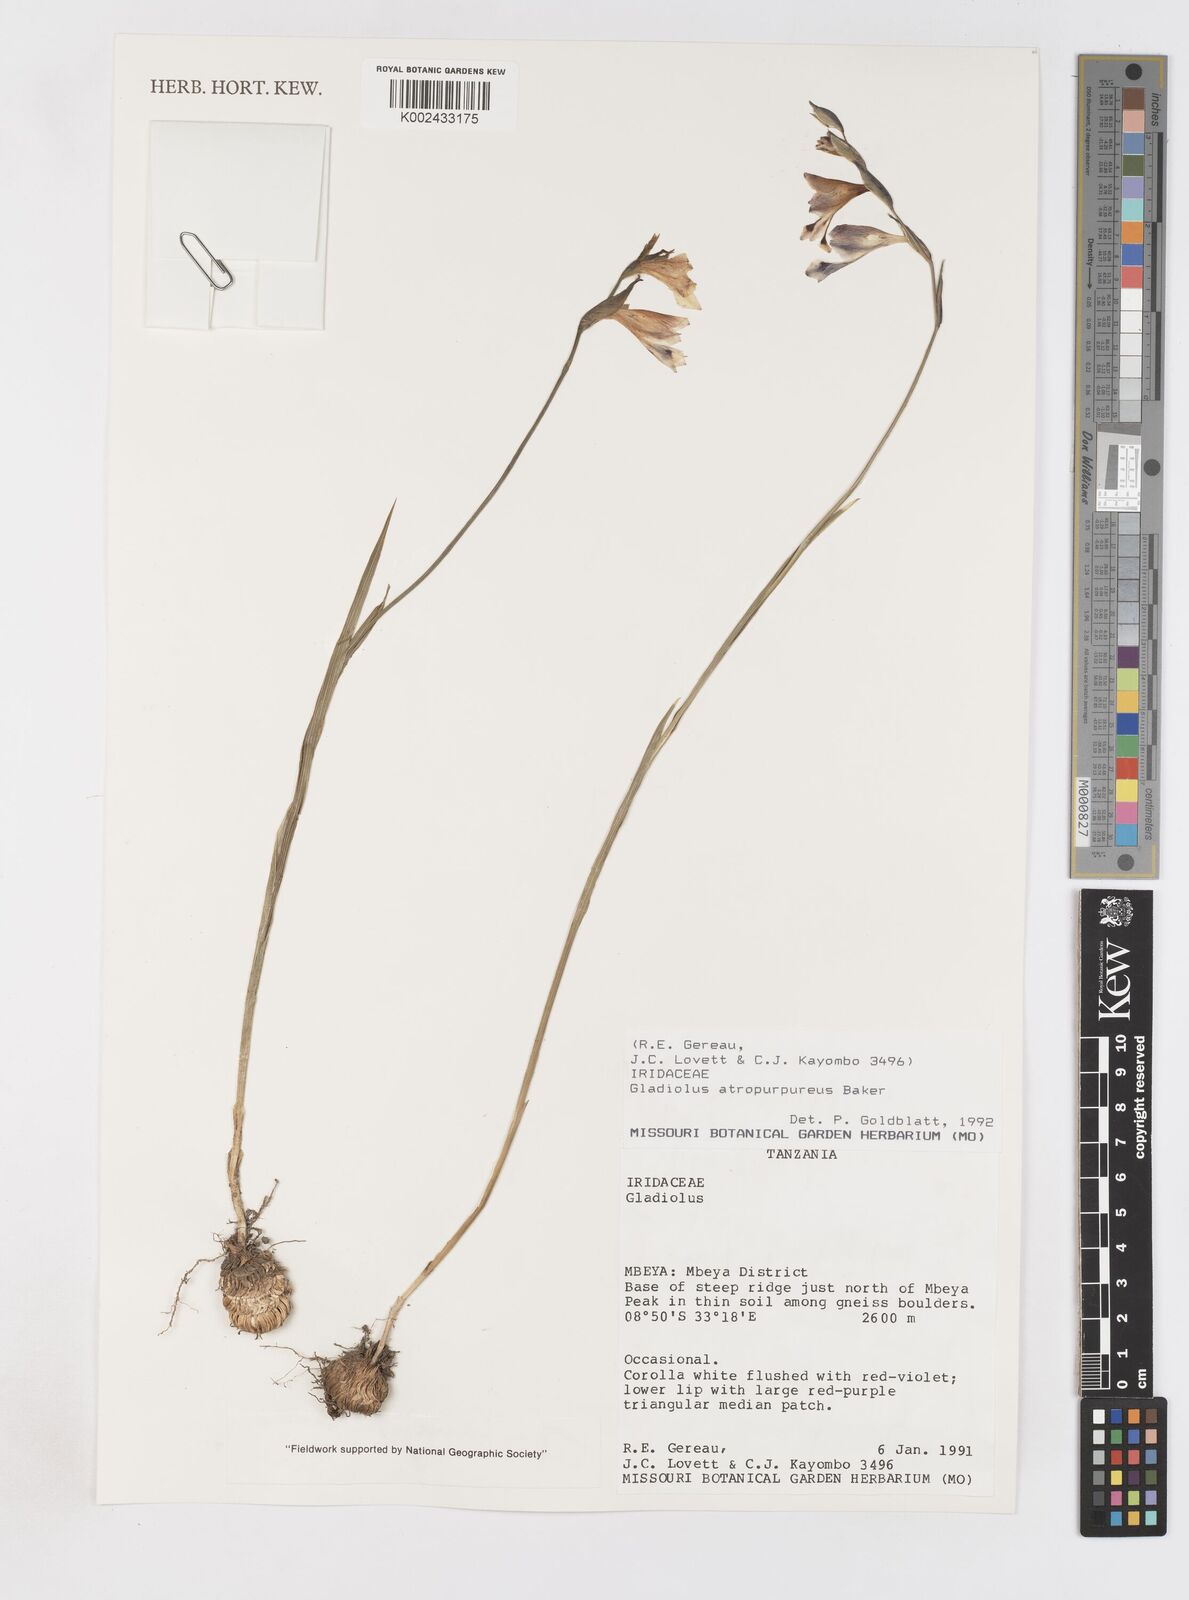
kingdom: Plantae
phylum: Tracheophyta
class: Liliopsida
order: Asparagales
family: Iridaceae
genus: Gladiolus
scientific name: Gladiolus atropurpureus
